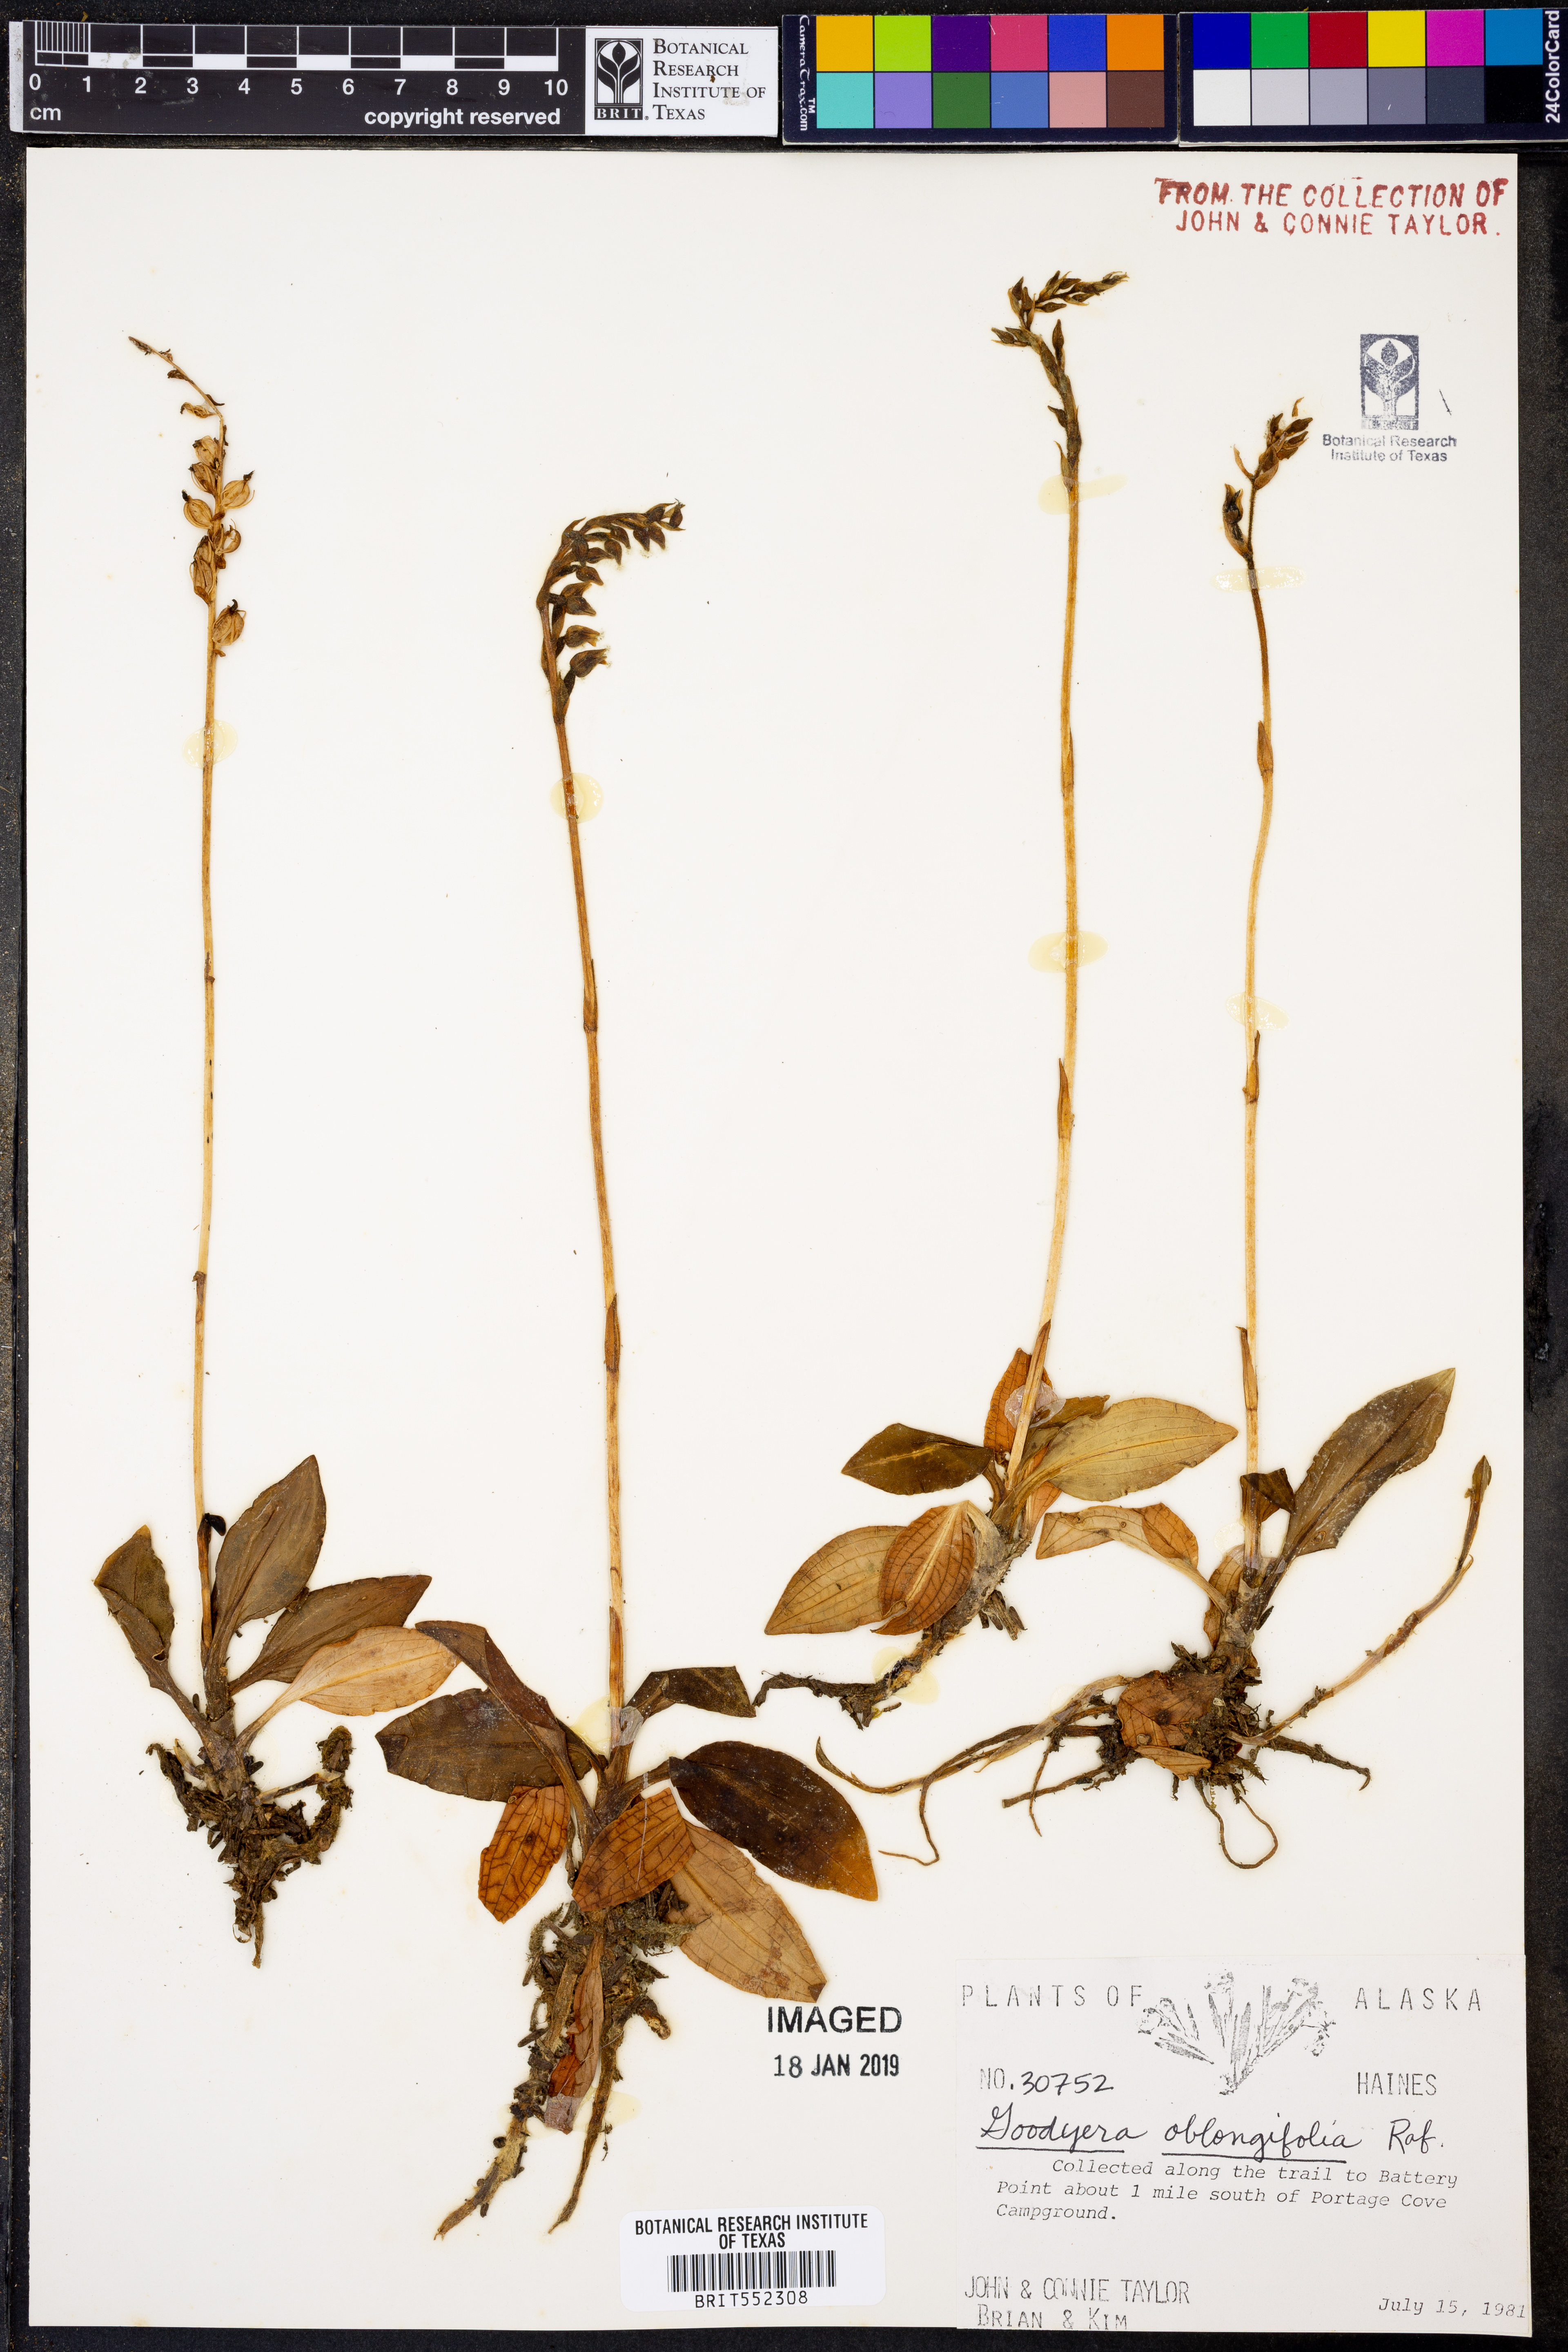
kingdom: Plantae
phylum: Tracheophyta
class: Liliopsida
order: Asparagales
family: Orchidaceae
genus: Goodyera
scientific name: Goodyera oblongifolia
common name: Giant rattlesnake-plantain
